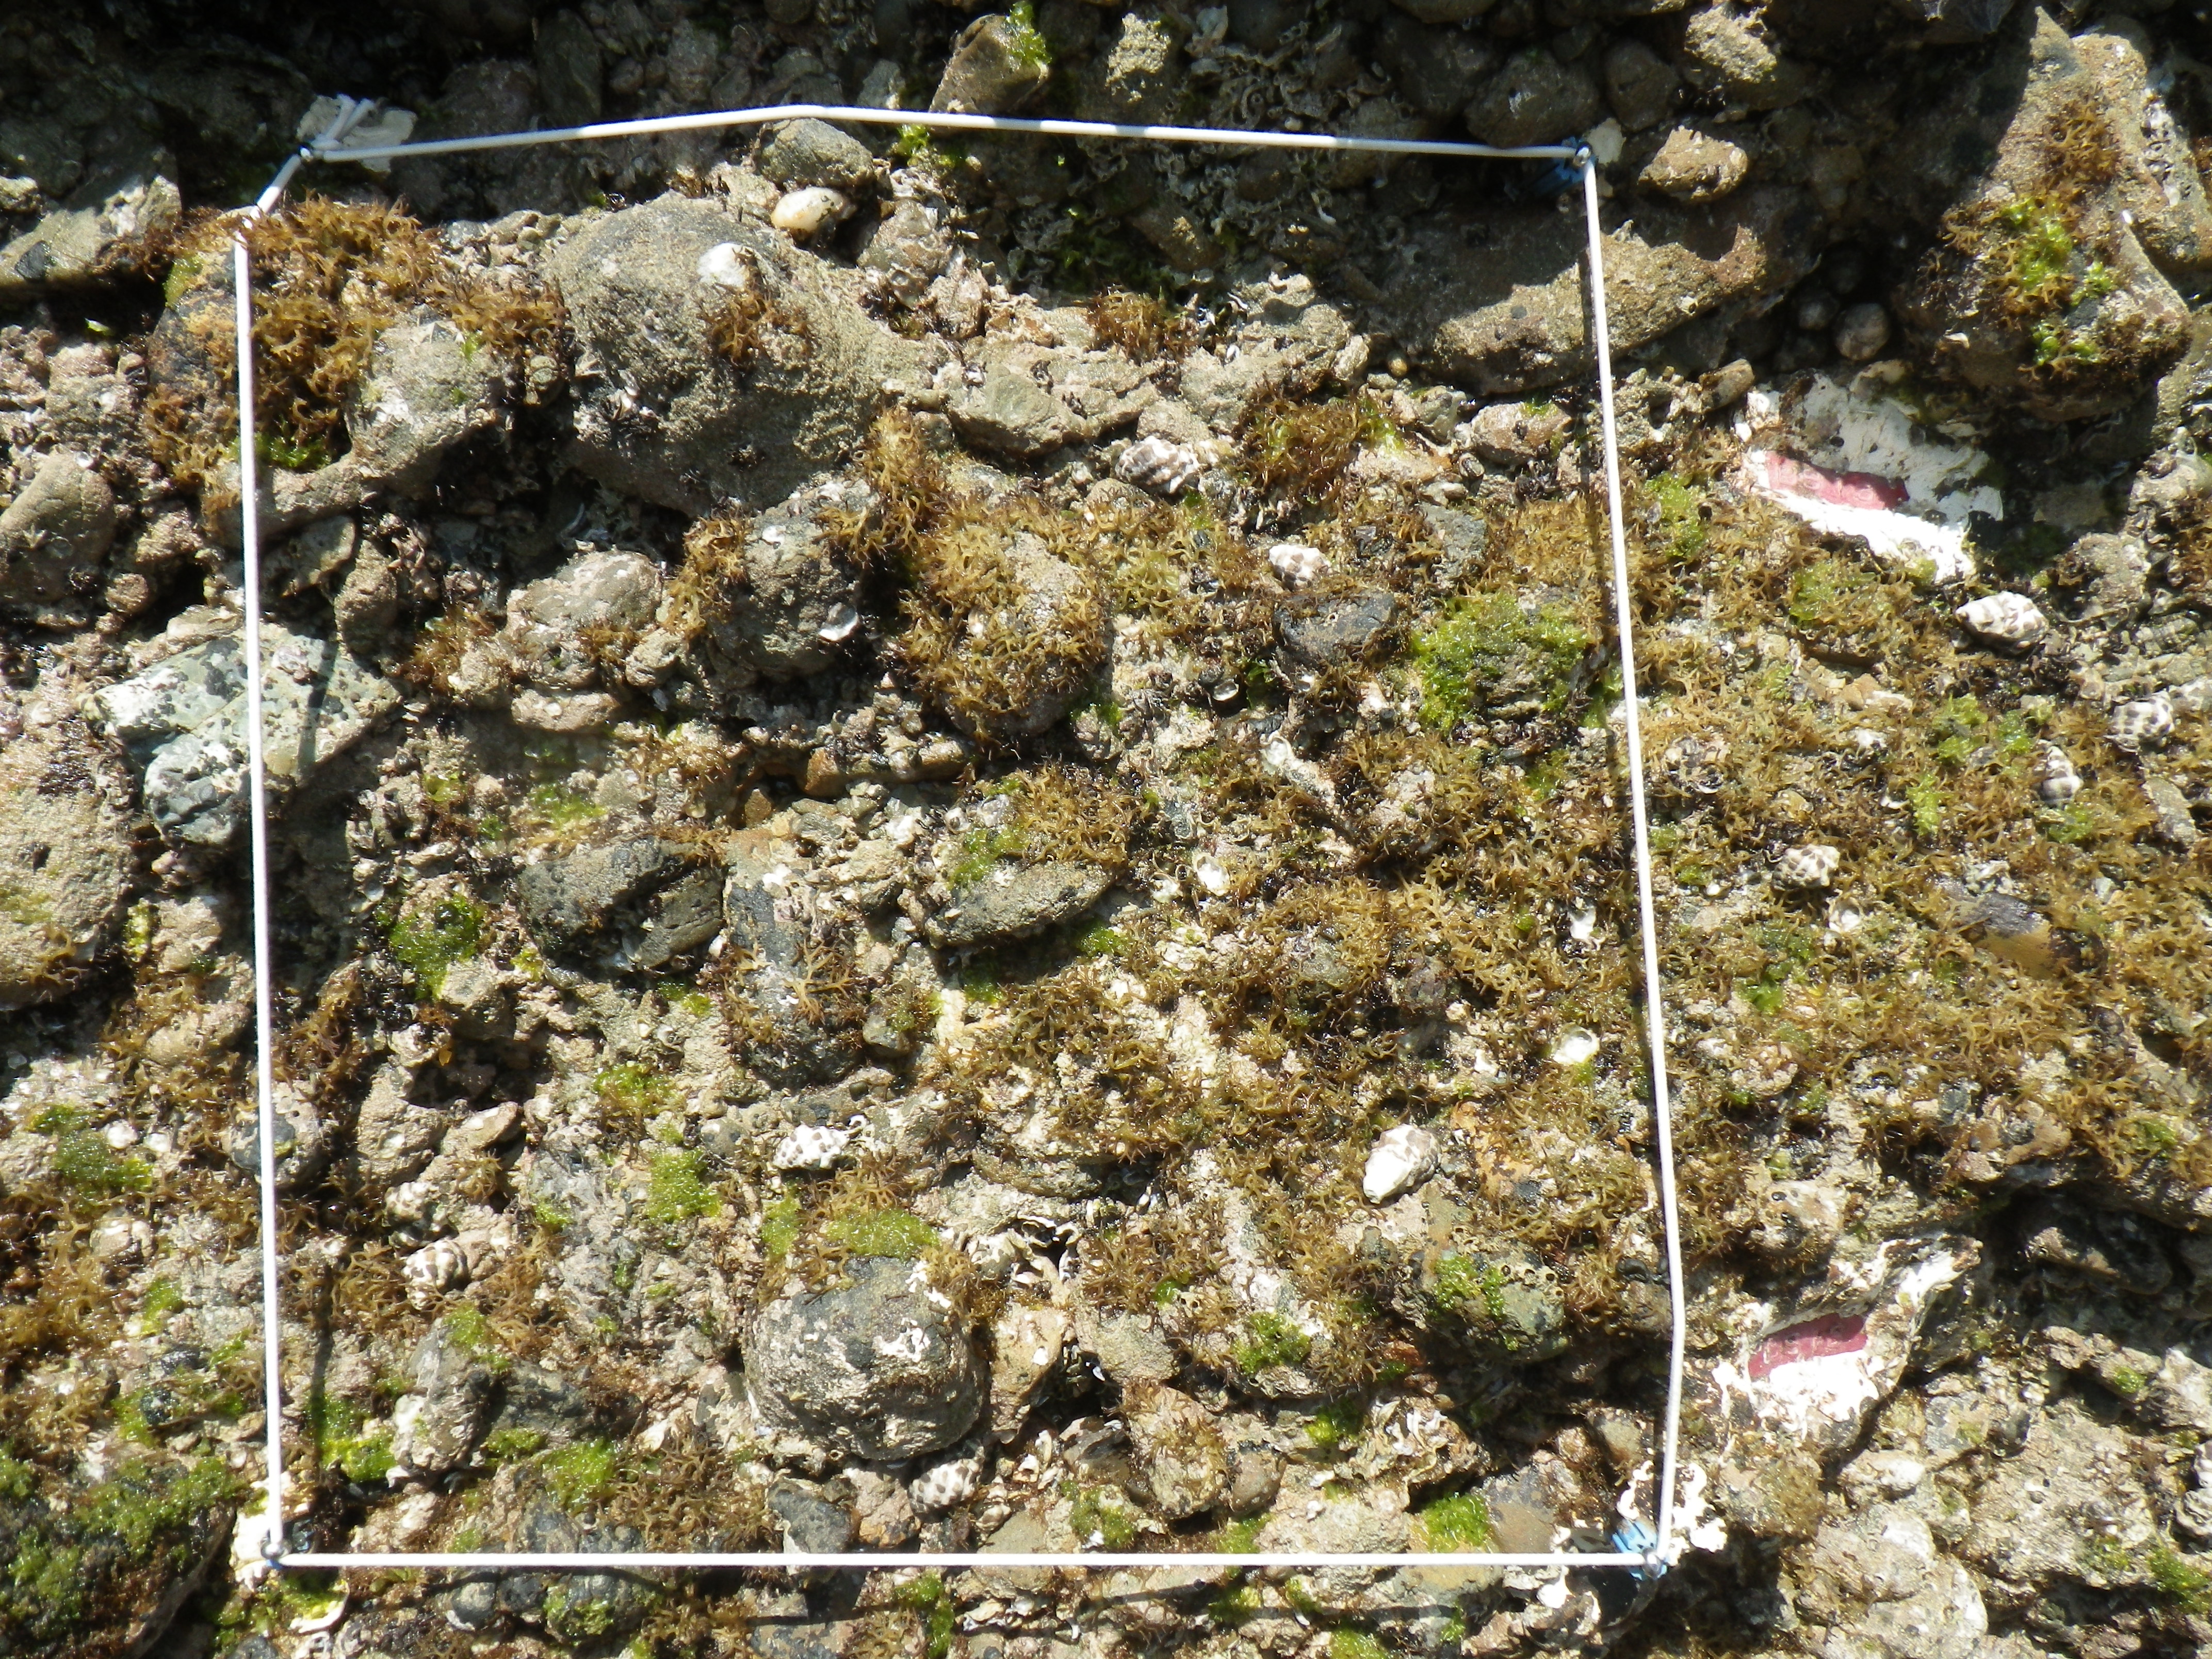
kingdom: Animalia
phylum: Arthropoda
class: Maxillopoda
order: Sessilia
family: Chthamalidae
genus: Chthamalus
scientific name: Chthamalus challengeri
